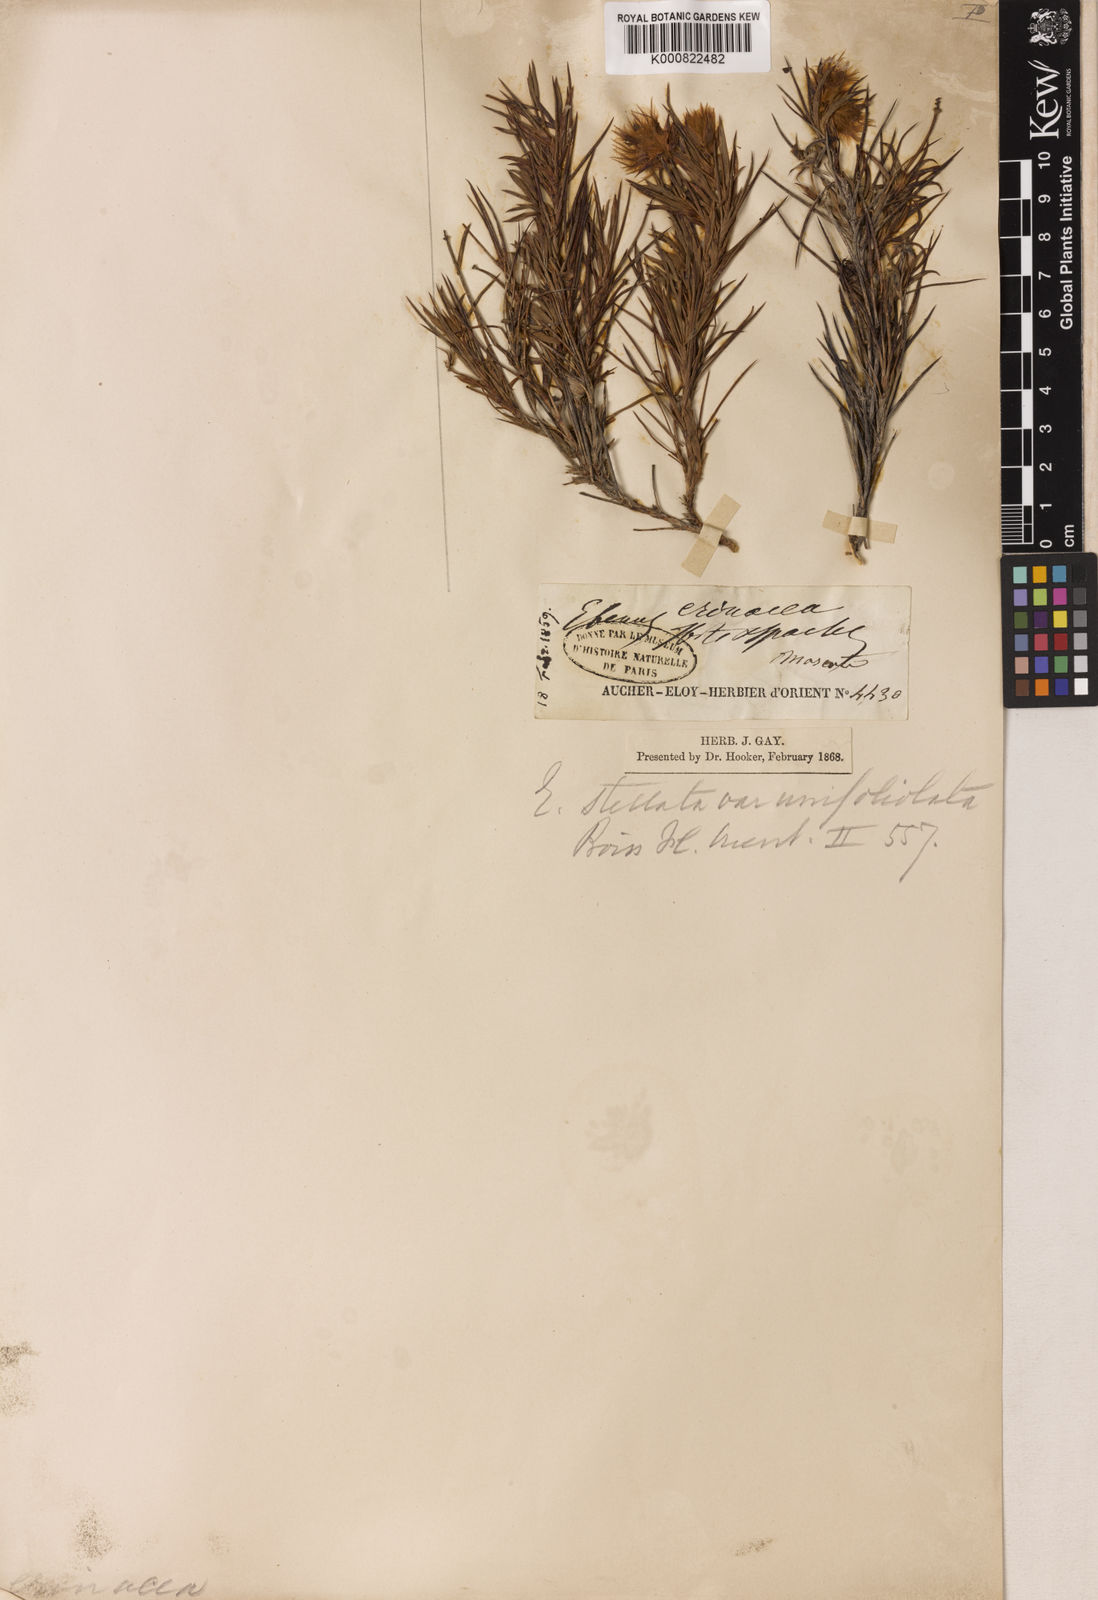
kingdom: Plantae
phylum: Tracheophyta
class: Magnoliopsida
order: Fabales
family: Fabaceae
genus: Ebenus
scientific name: Ebenus stellata
